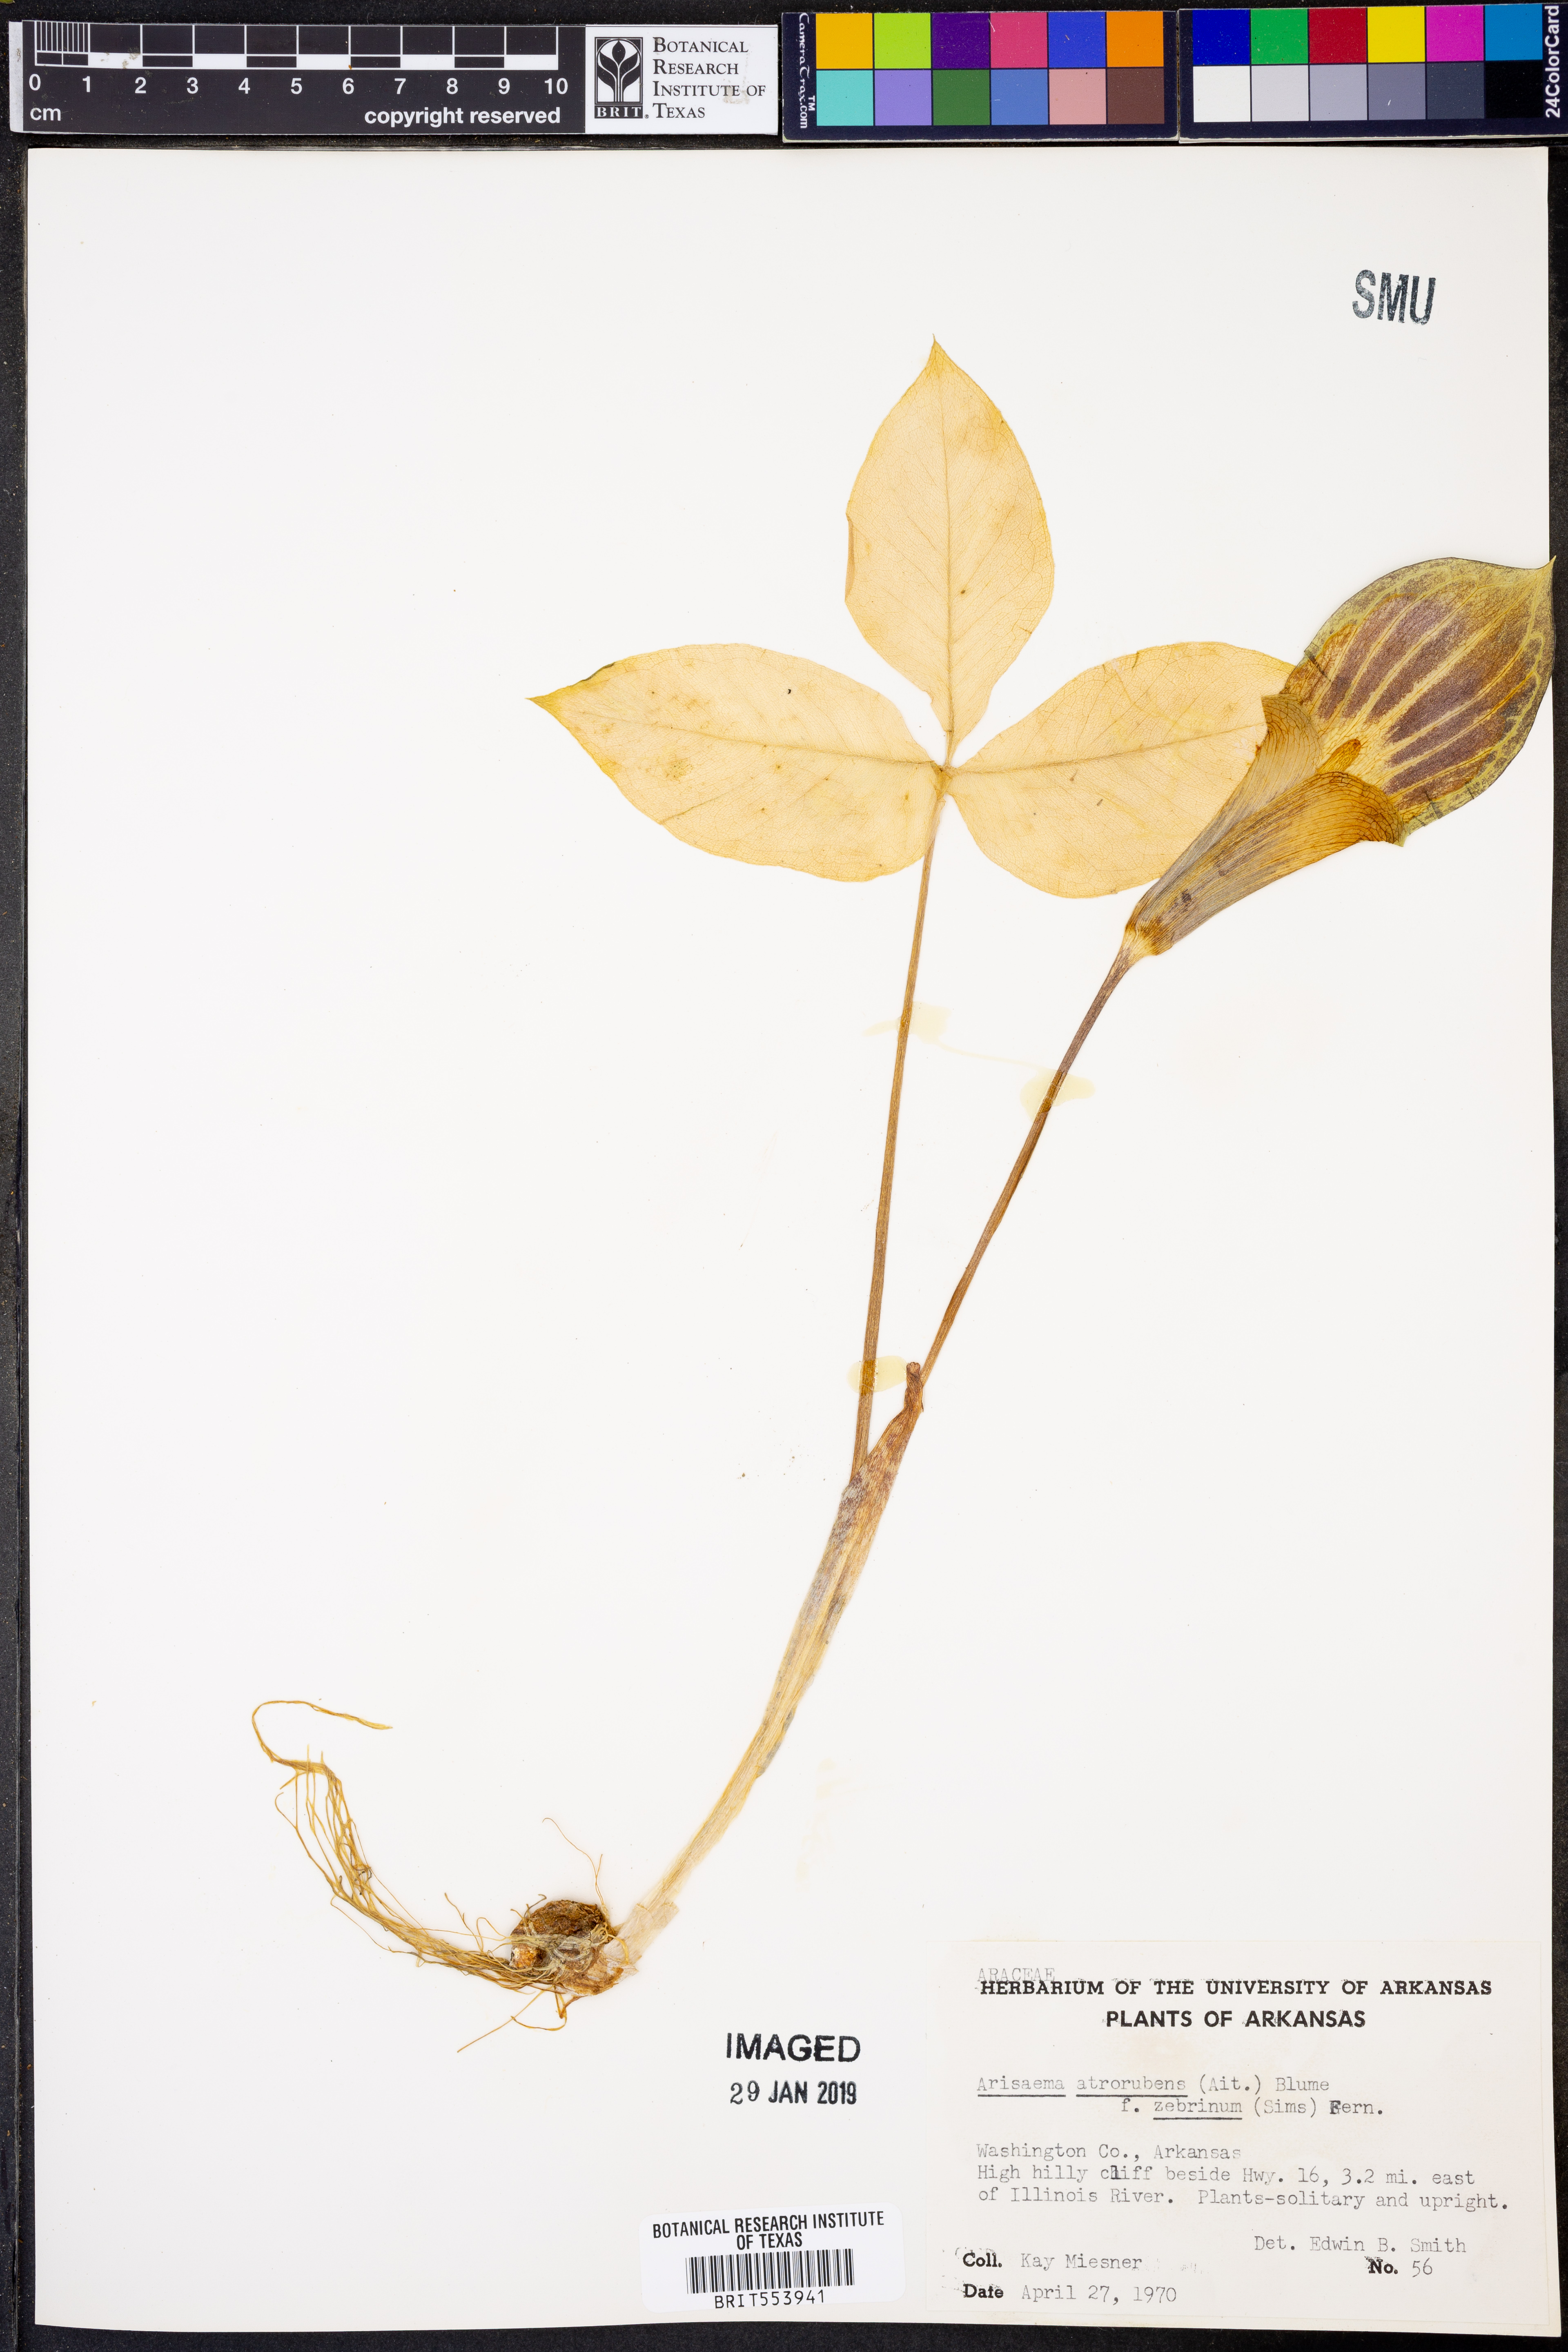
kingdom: Plantae
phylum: Tracheophyta
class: Liliopsida
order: Alismatales
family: Araceae
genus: Arisaema
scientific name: Arisaema triphyllum
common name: Jack-in-the-pulpit
